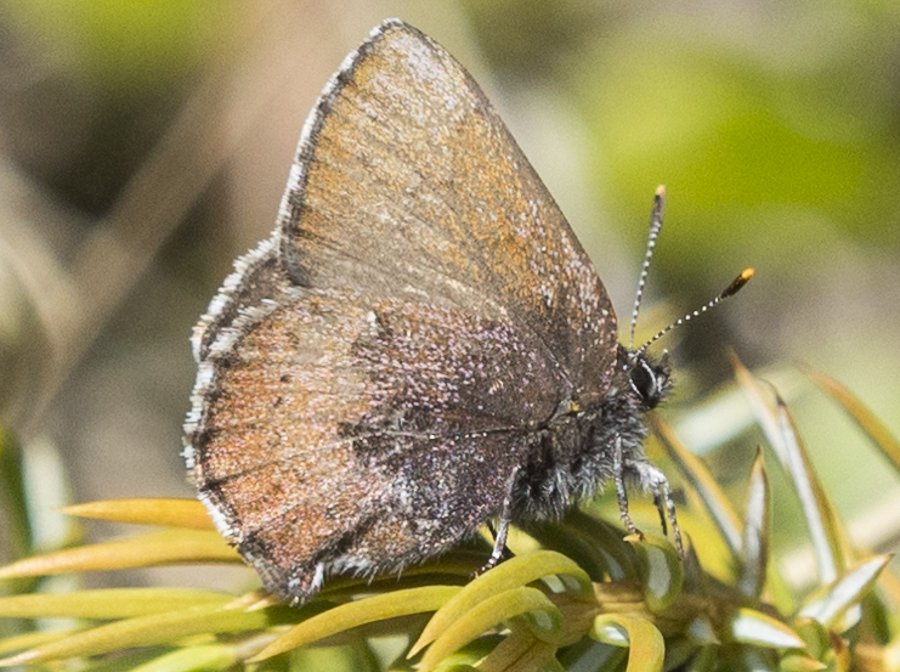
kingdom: Animalia
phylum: Arthropoda
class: Insecta
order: Lepidoptera
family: Lycaenidae
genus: Incisalia
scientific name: Incisalia irioides
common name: Brown Elfin
